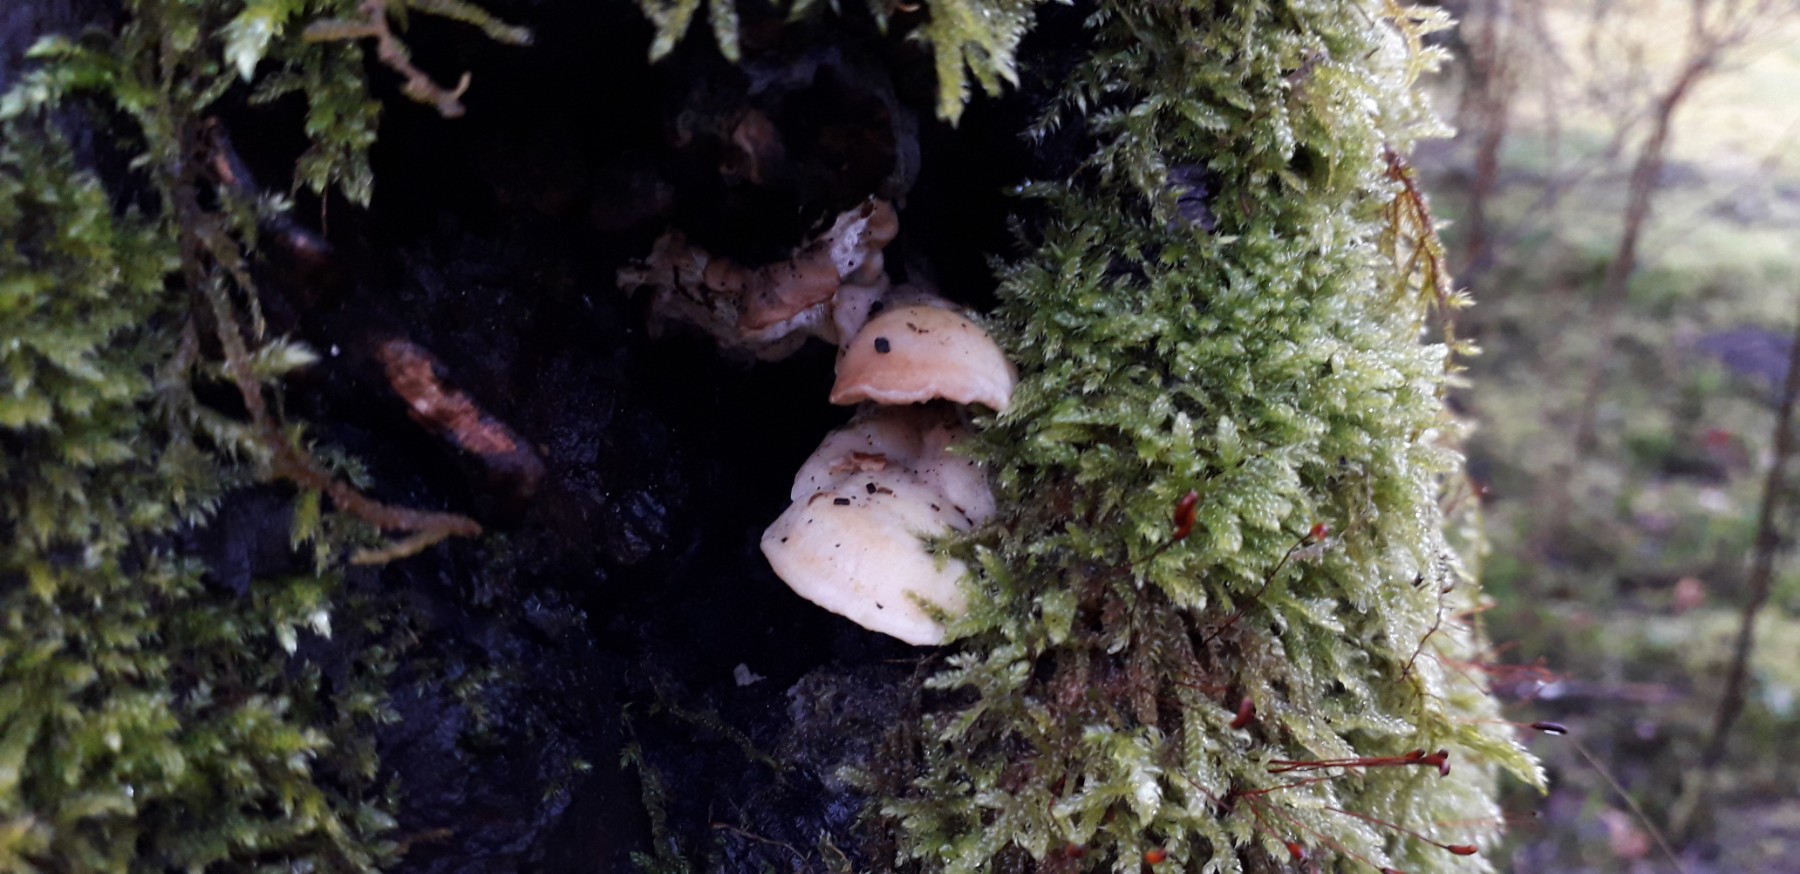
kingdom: Fungi
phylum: Basidiomycota
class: Agaricomycetes
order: Polyporales
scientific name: Polyporales
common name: poresvampordenen
